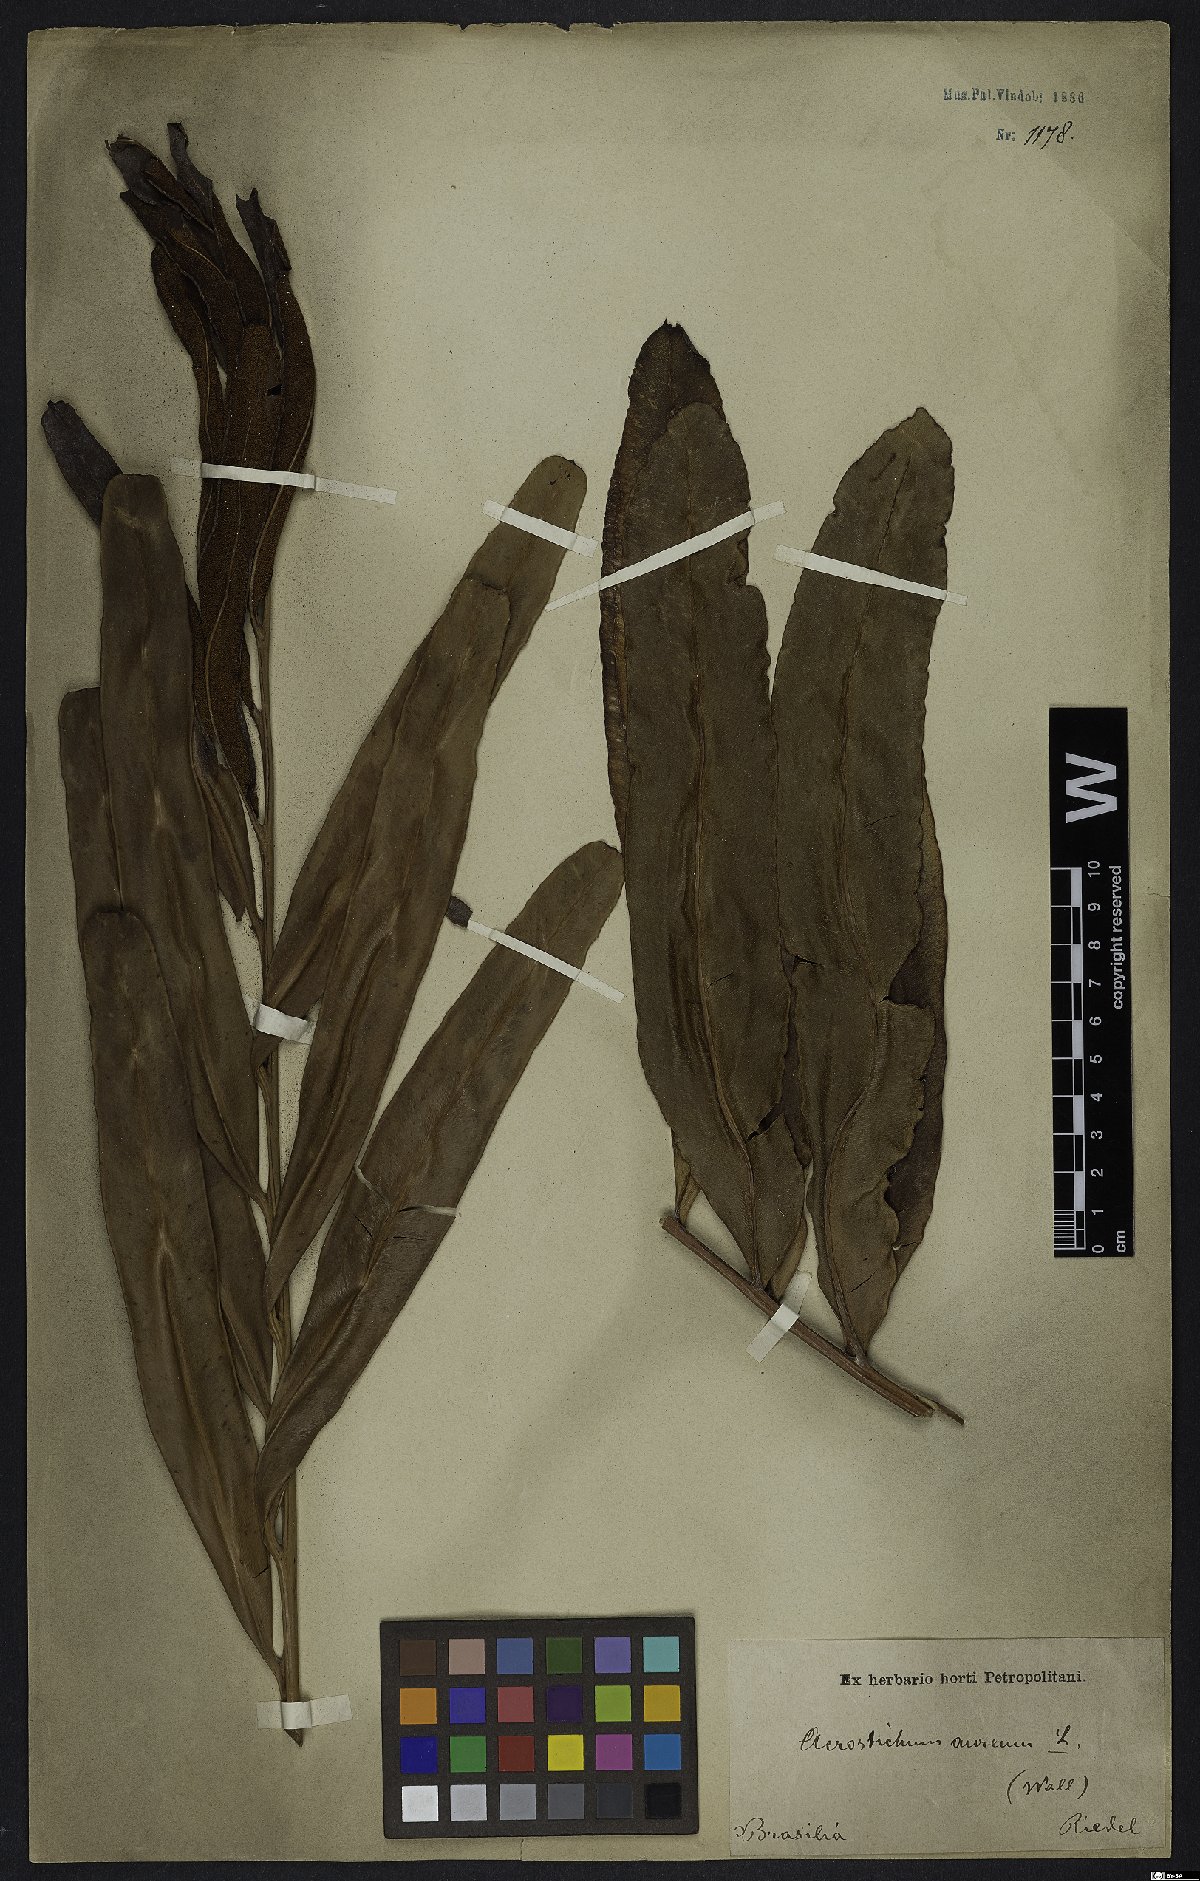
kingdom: Plantae
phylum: Tracheophyta
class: Polypodiopsida
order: Polypodiales
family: Pteridaceae
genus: Acrostichum
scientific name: Acrostichum aureum
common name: Leather fern
